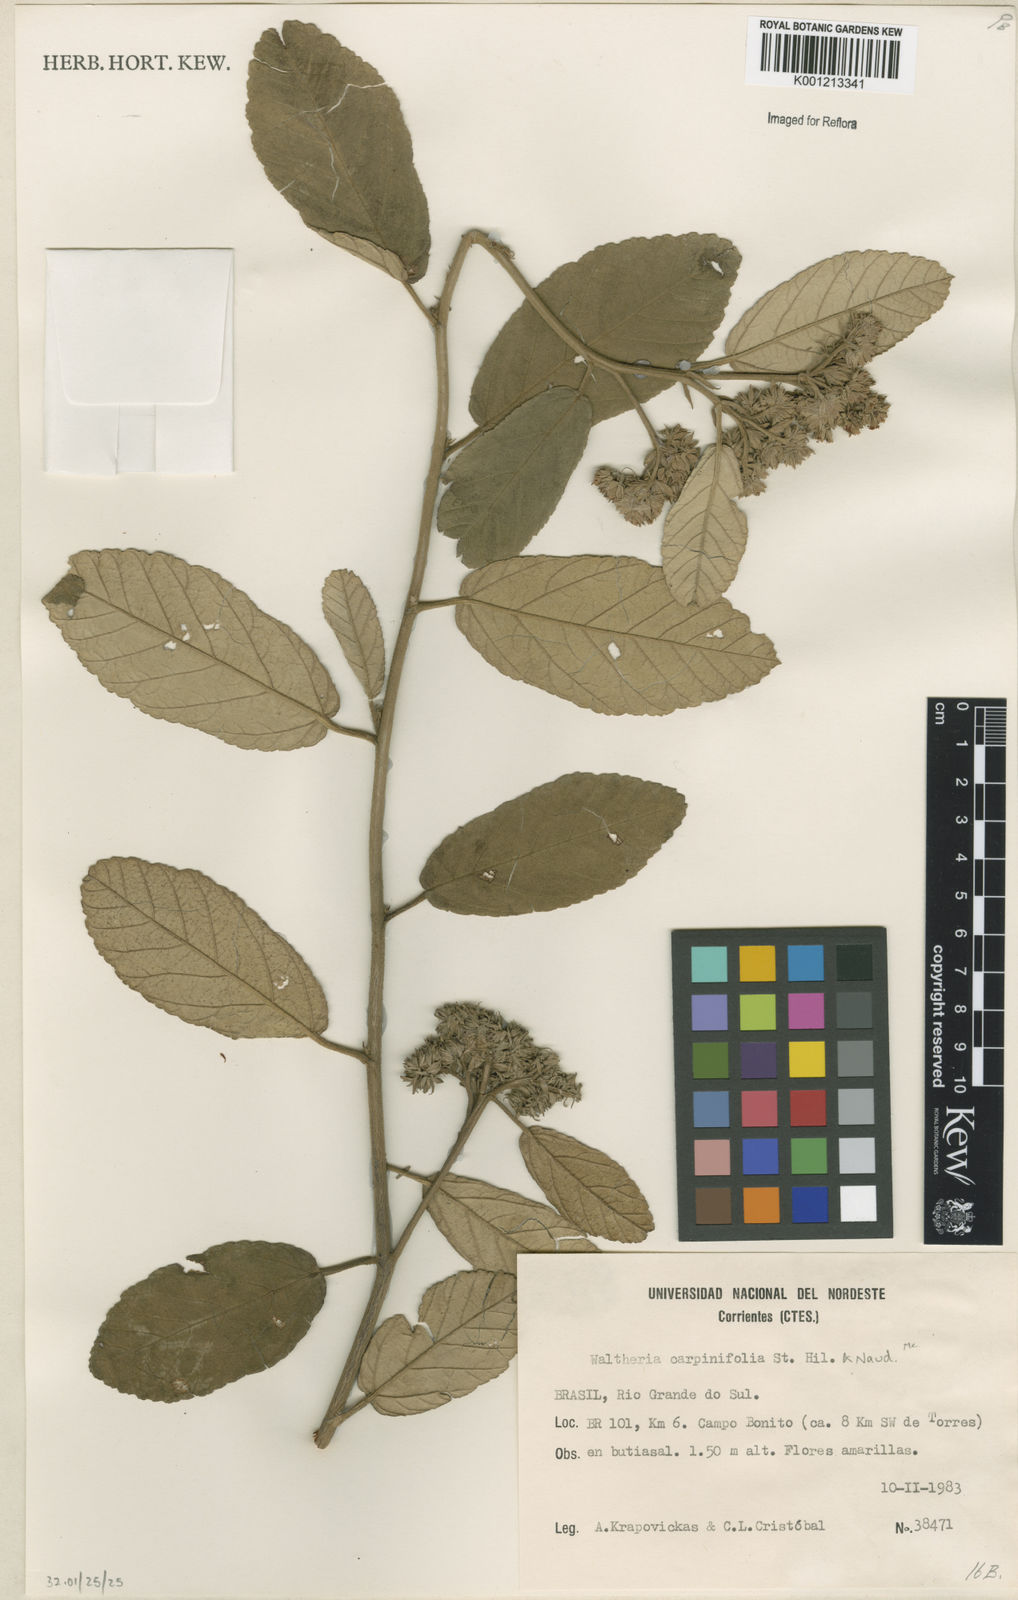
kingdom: Plantae
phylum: Tracheophyta
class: Magnoliopsida
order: Malvales
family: Malvaceae
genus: Waltheria
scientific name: Waltheria carpinifolia
